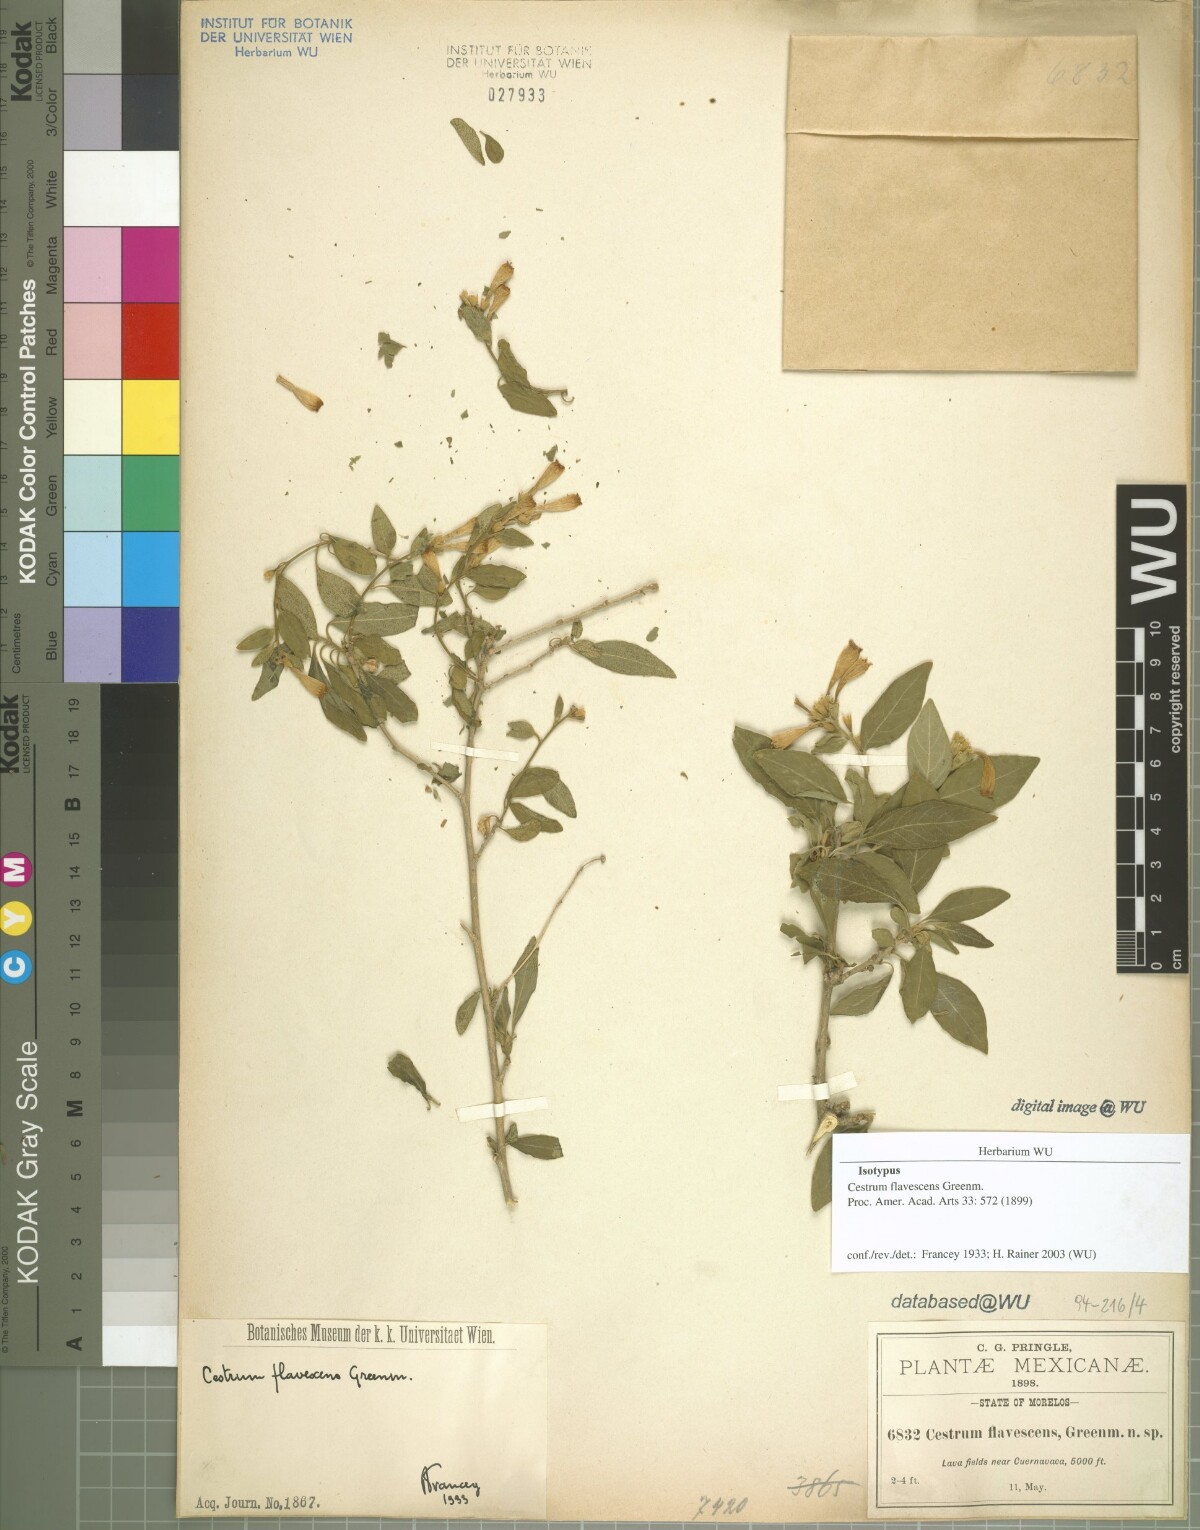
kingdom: Plantae
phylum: Tracheophyta
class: Magnoliopsida
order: Solanales
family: Solanaceae
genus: Cestrum
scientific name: Cestrum flavescens
